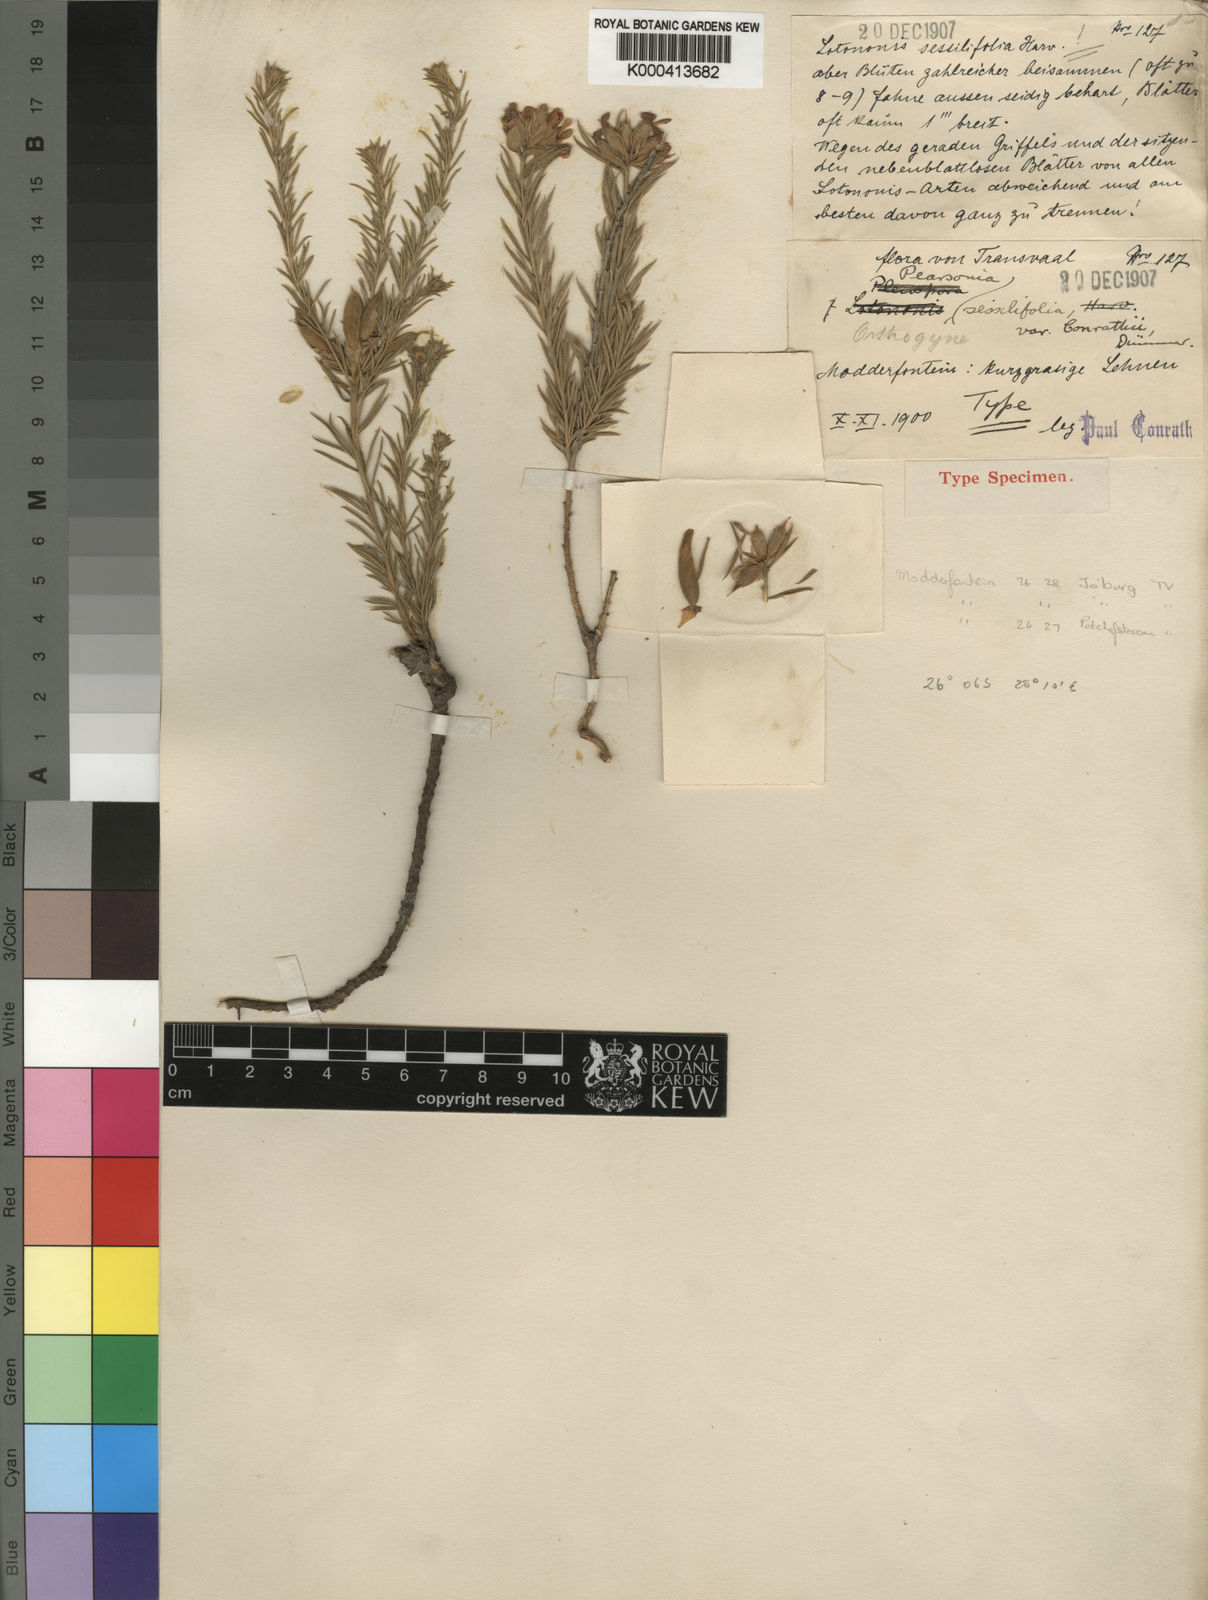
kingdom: Plantae
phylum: Tracheophyta
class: Magnoliopsida
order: Fabales
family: Fabaceae
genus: Pearsonia
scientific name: Pearsonia sessilifolia
